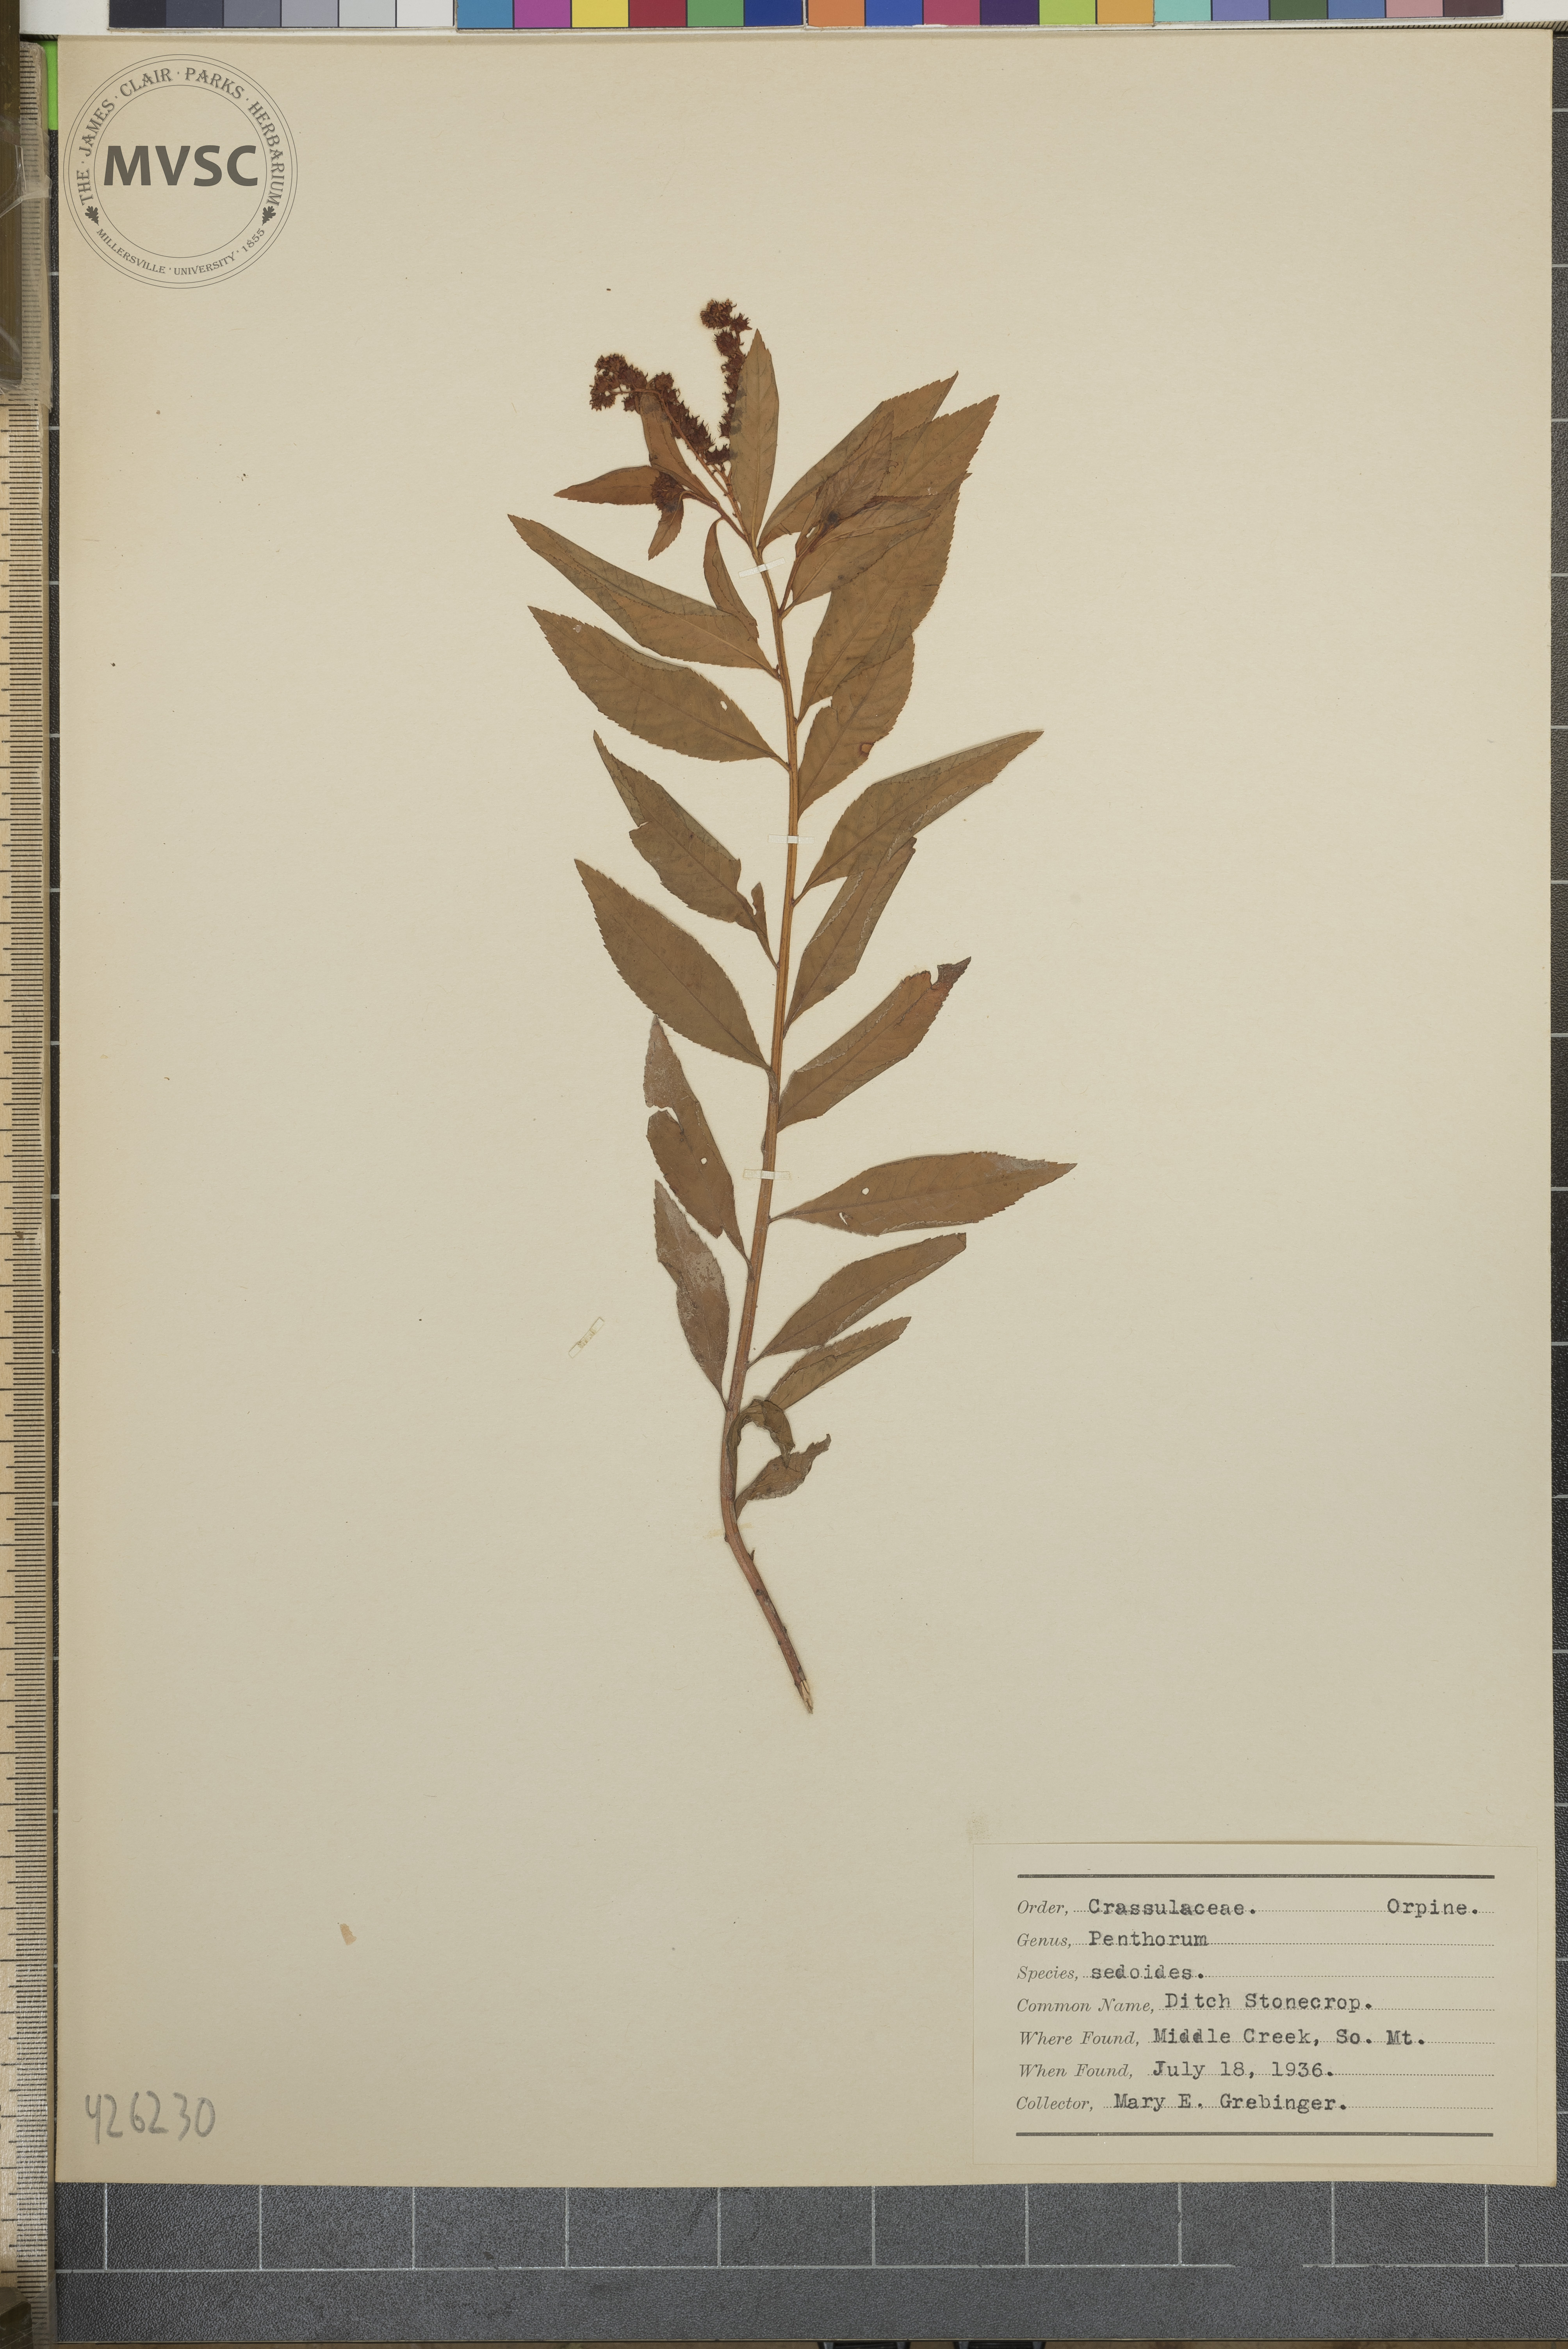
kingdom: Plantae
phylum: Tracheophyta
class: Magnoliopsida
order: Saxifragales
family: Penthoraceae
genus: Penthorum
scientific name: Penthorum sedoides
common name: Ditch Stonecrop
